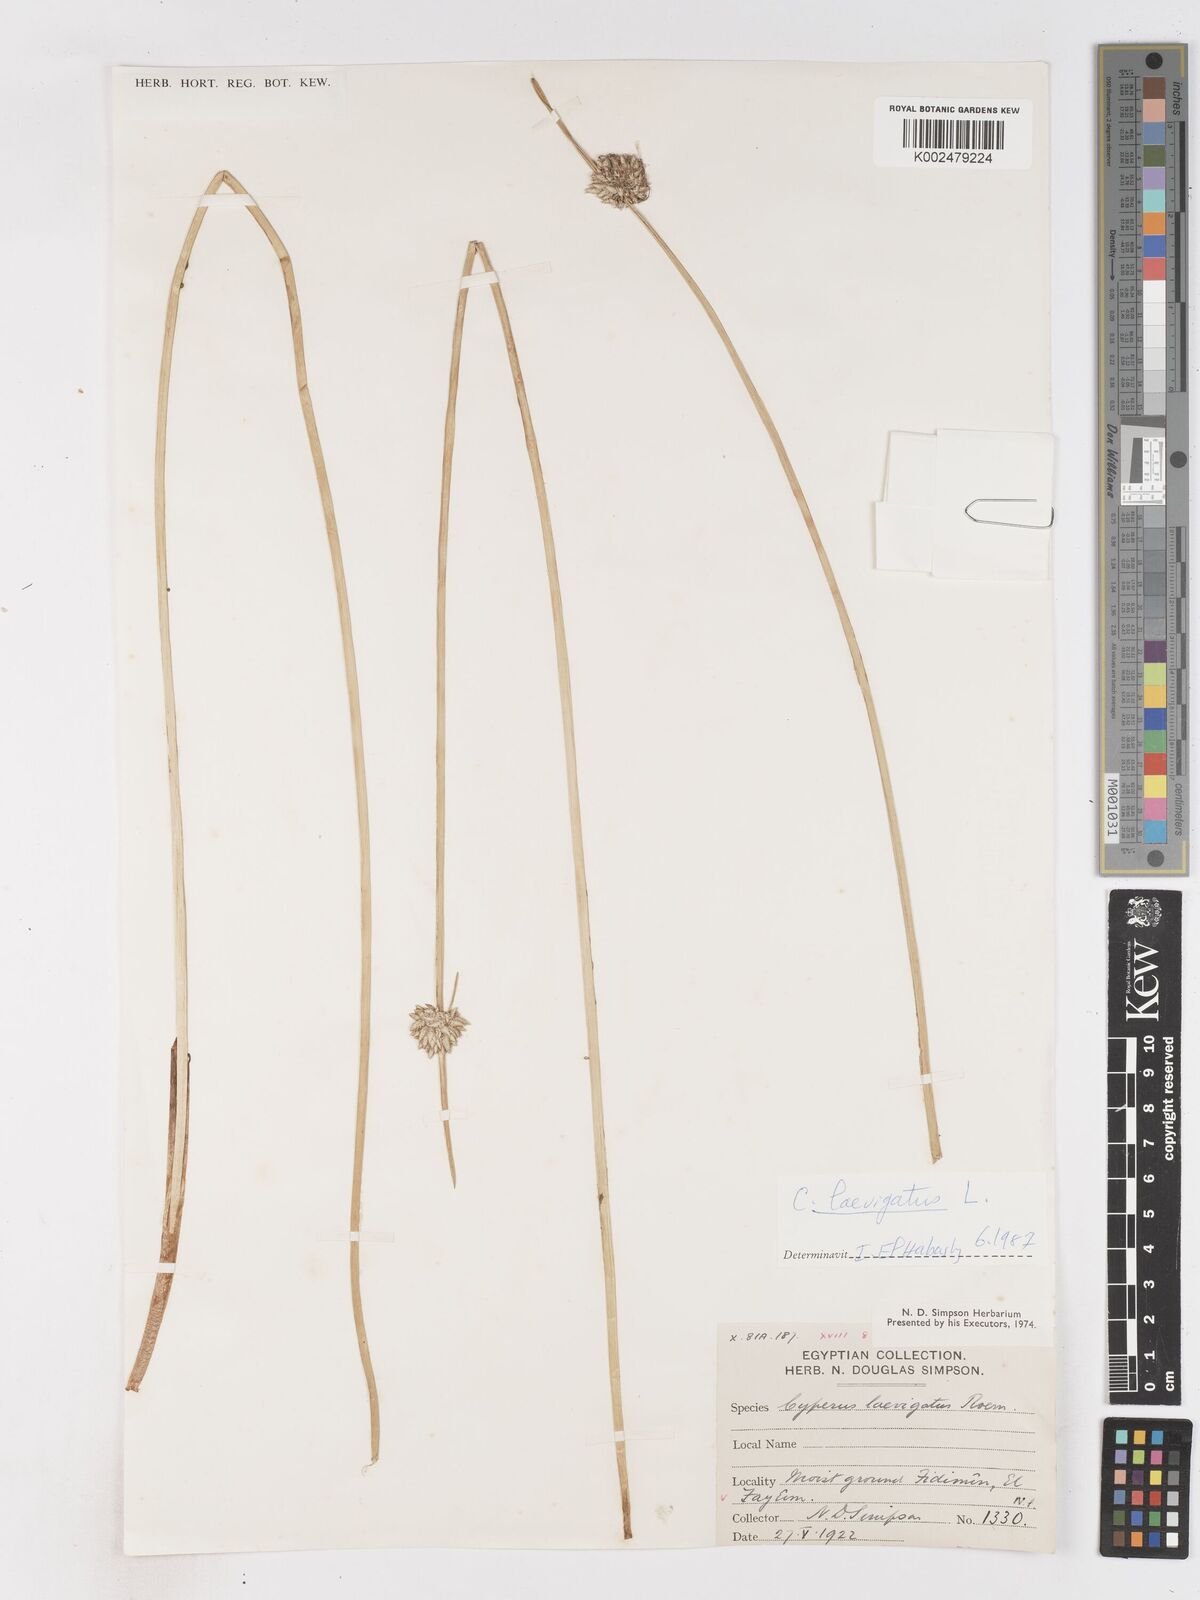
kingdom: Plantae
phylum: Tracheophyta
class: Liliopsida
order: Poales
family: Cyperaceae
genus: Cyperus
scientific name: Cyperus laevigatus
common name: Smooth flat sedge
